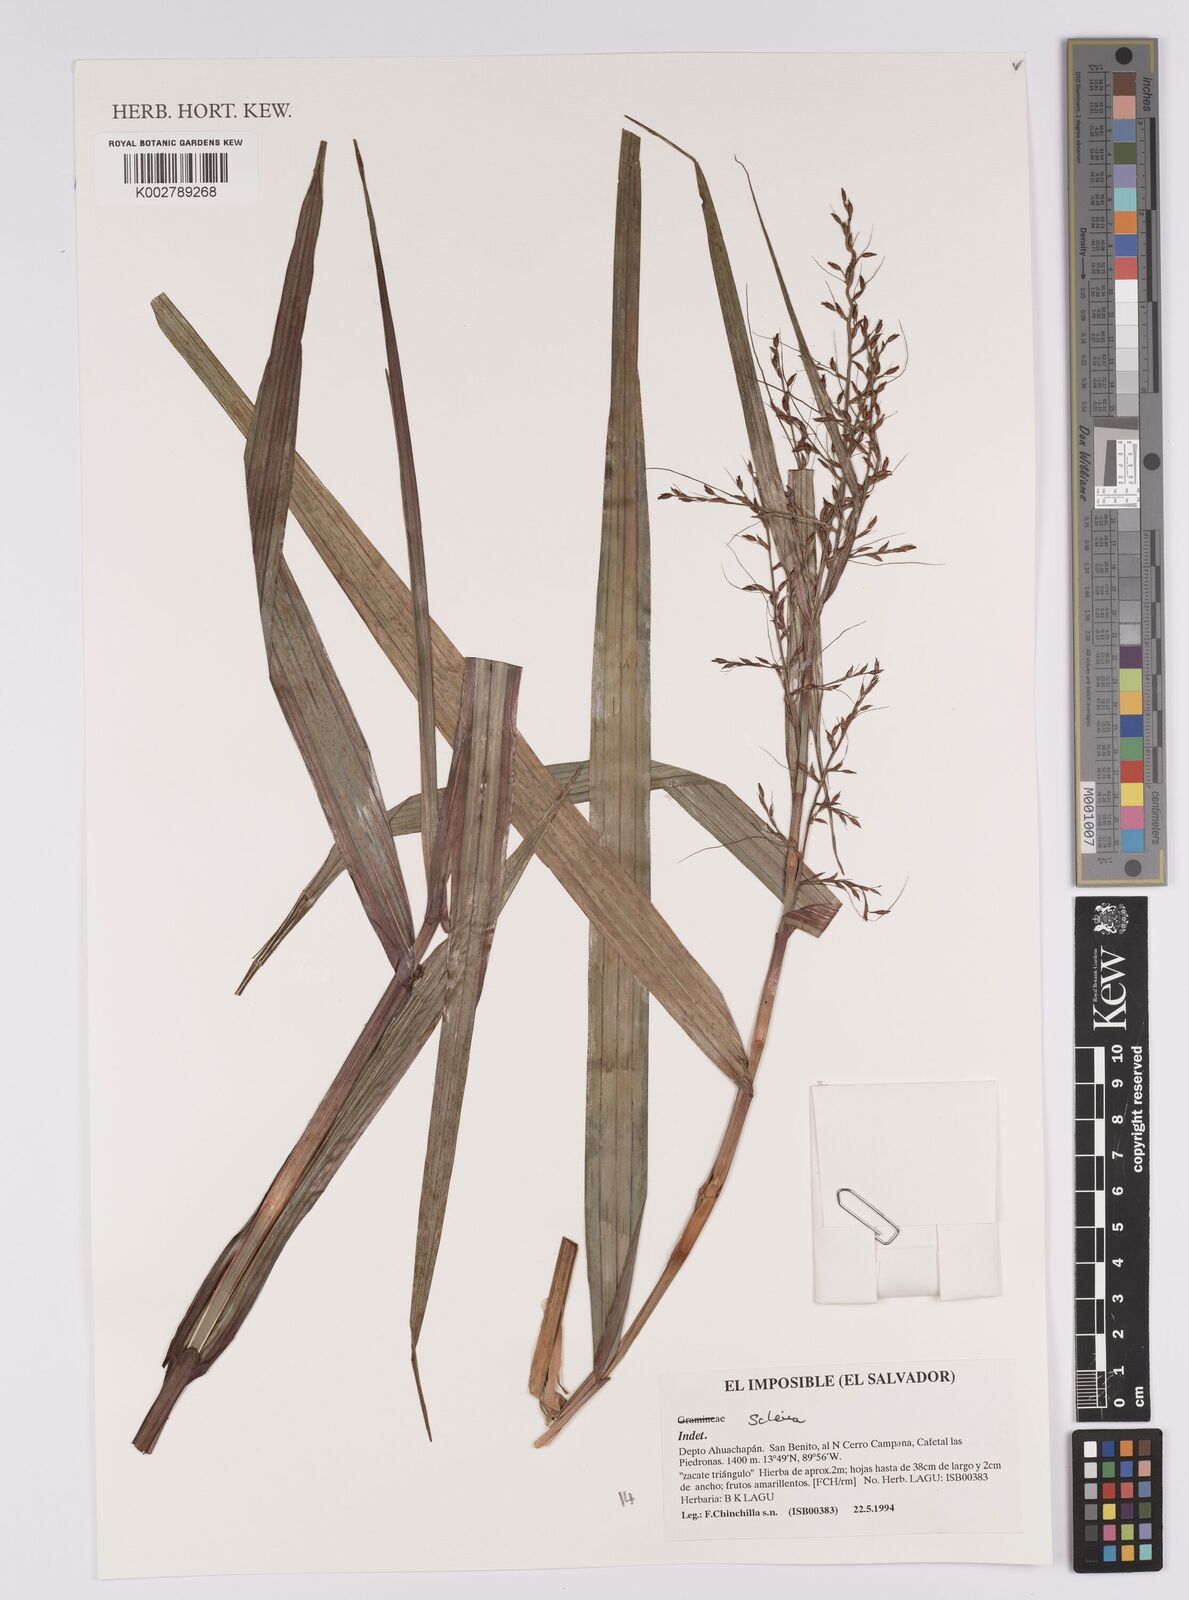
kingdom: Plantae
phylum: Tracheophyta
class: Liliopsida
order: Poales
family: Cyperaceae
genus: Scleria
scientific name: Scleria
